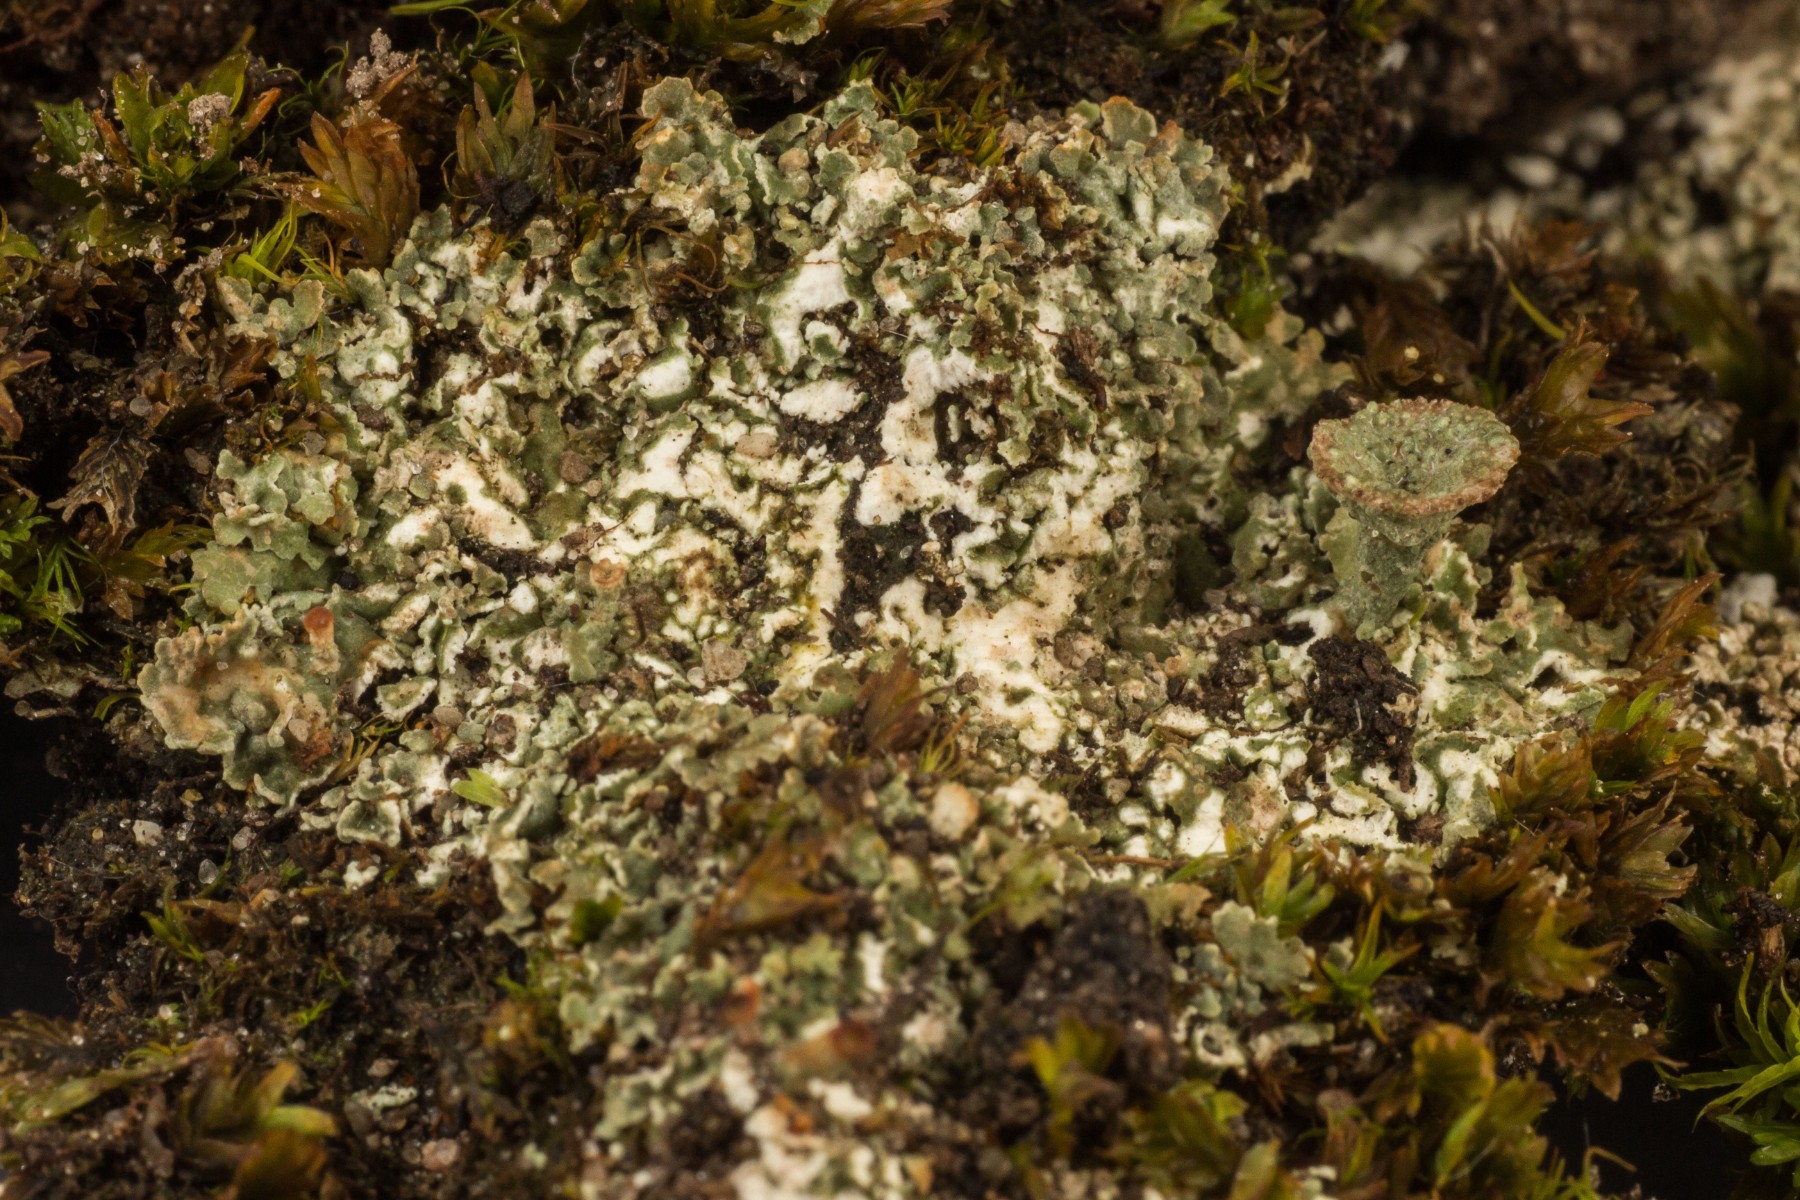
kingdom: Fungi
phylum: Ascomycota
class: Lecanoromycetes
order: Lecanorales
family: Cladoniaceae
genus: Cladonia
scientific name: Cladonia pocillum
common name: kalk-bægerlav
